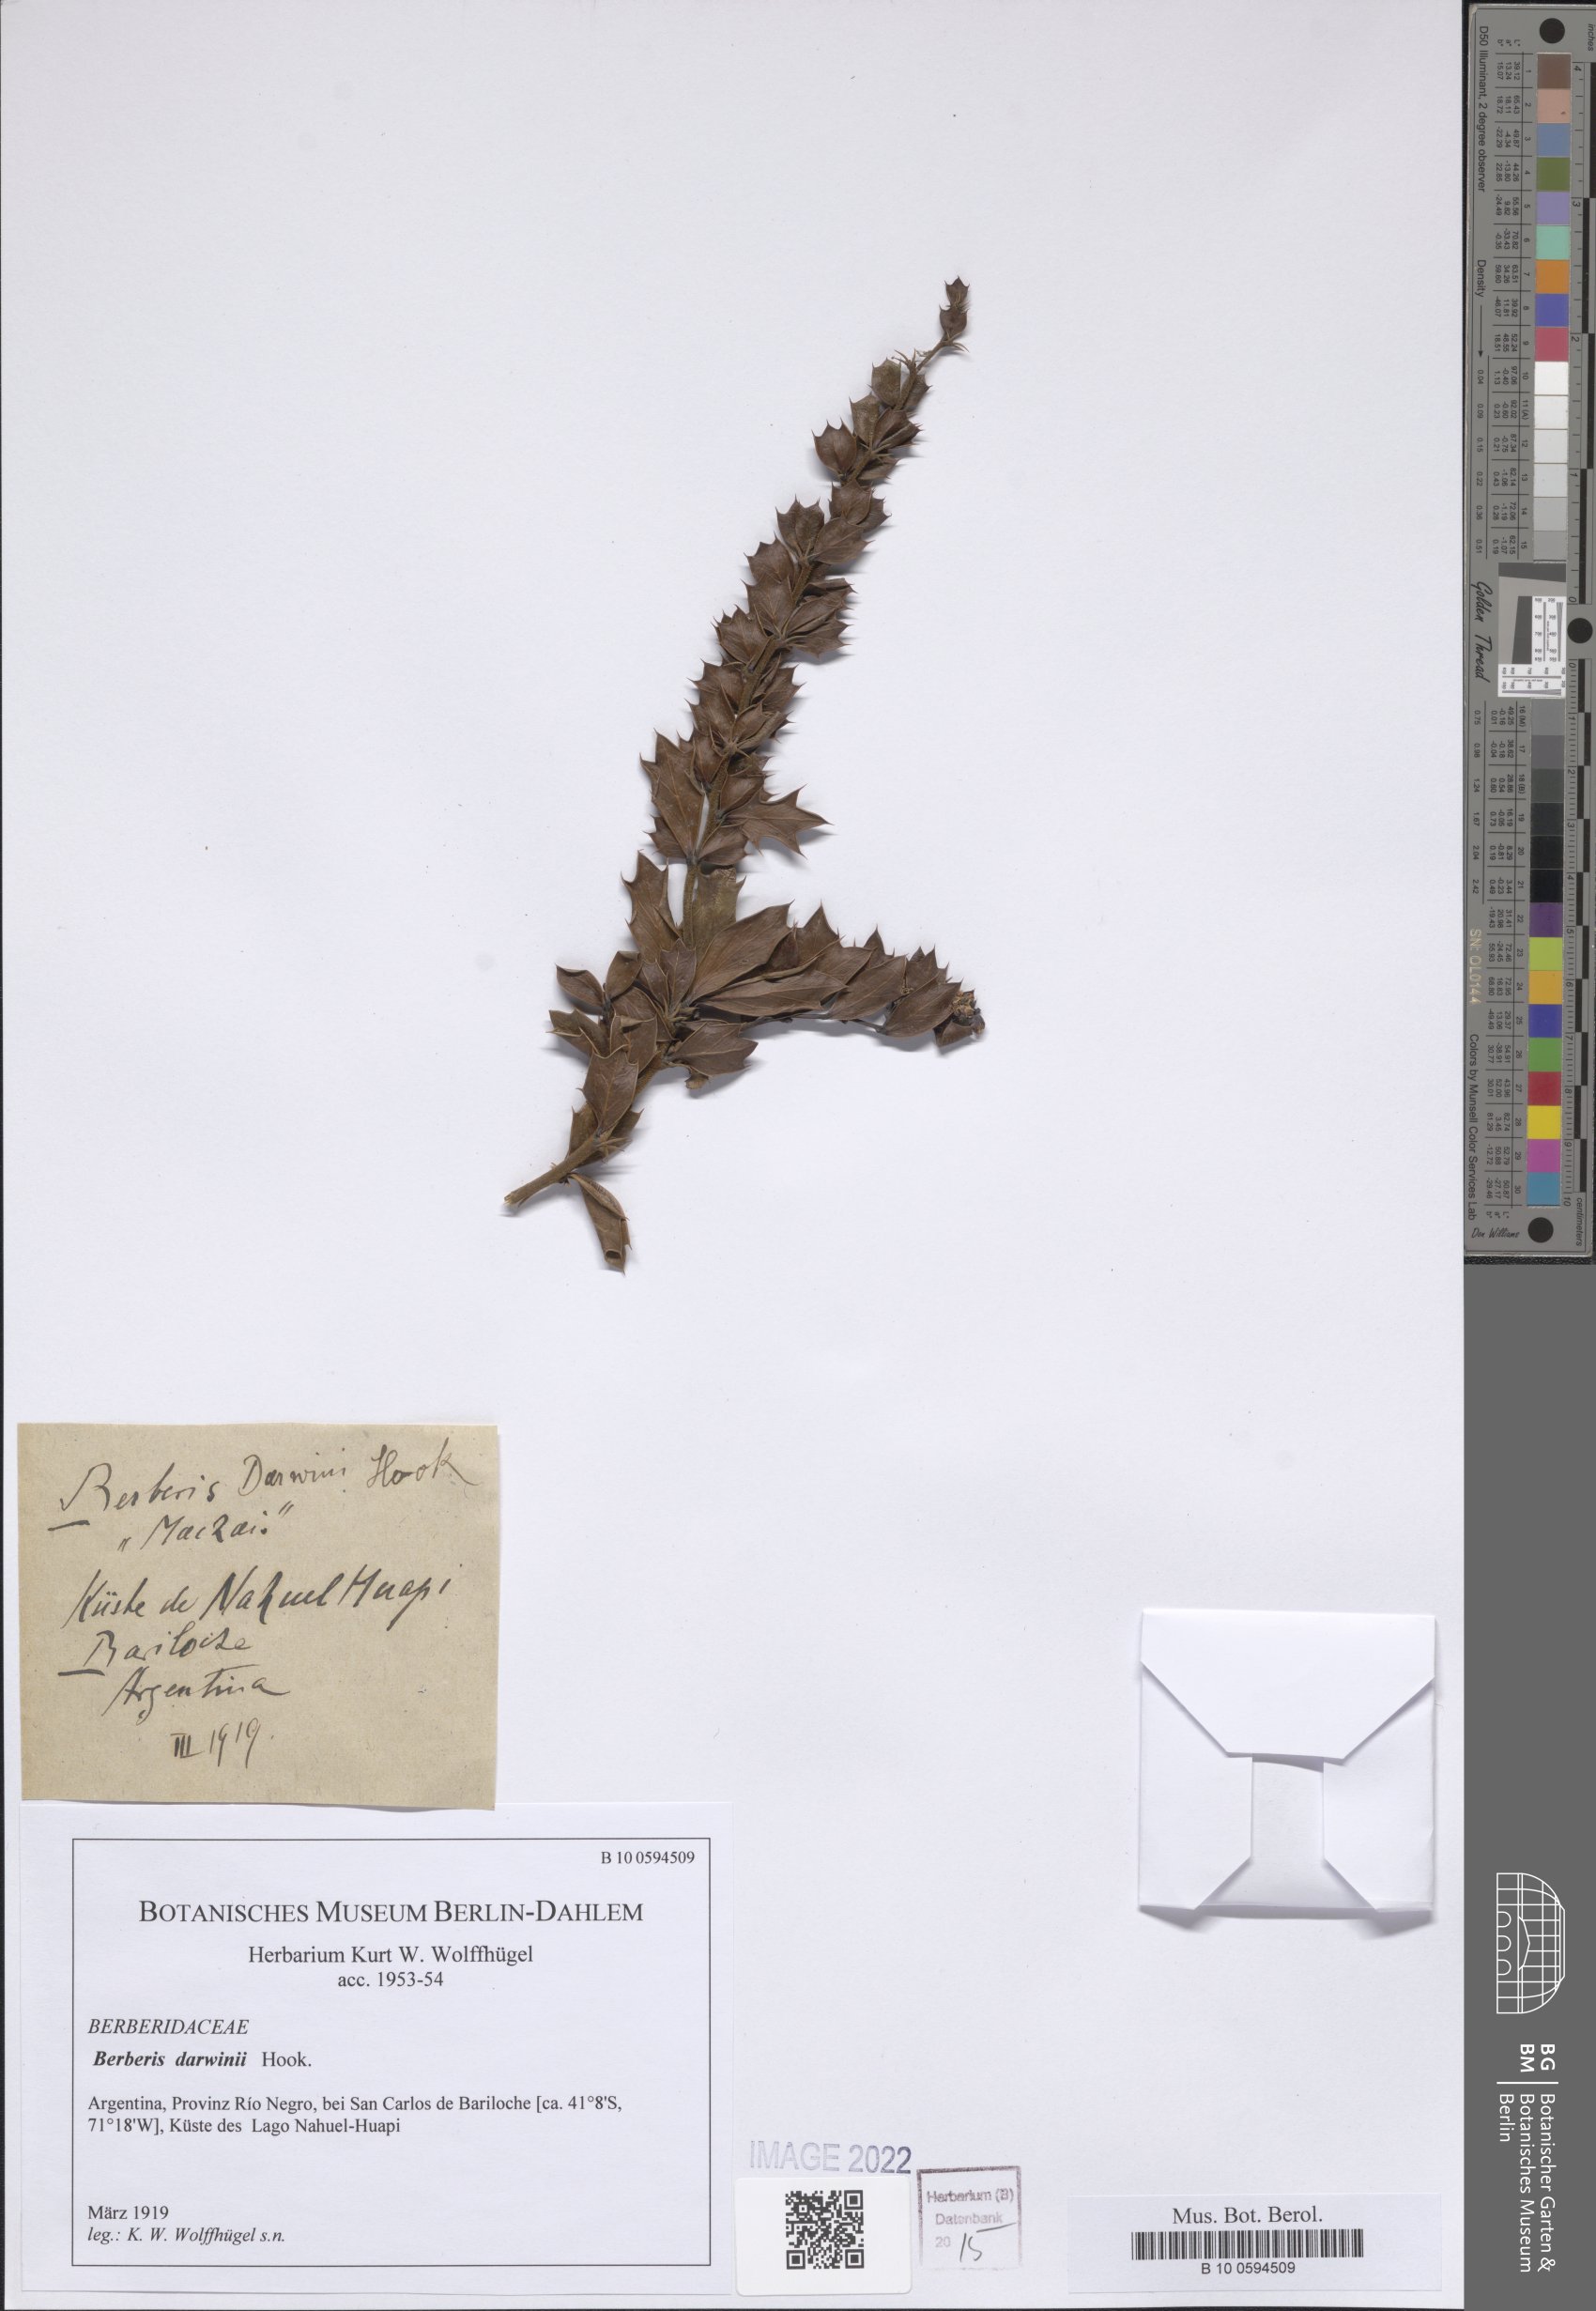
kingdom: Plantae
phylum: Tracheophyta
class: Magnoliopsida
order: Ranunculales
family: Berberidaceae
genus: Berberis
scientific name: Berberis darwinii
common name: Darwin's barberry
